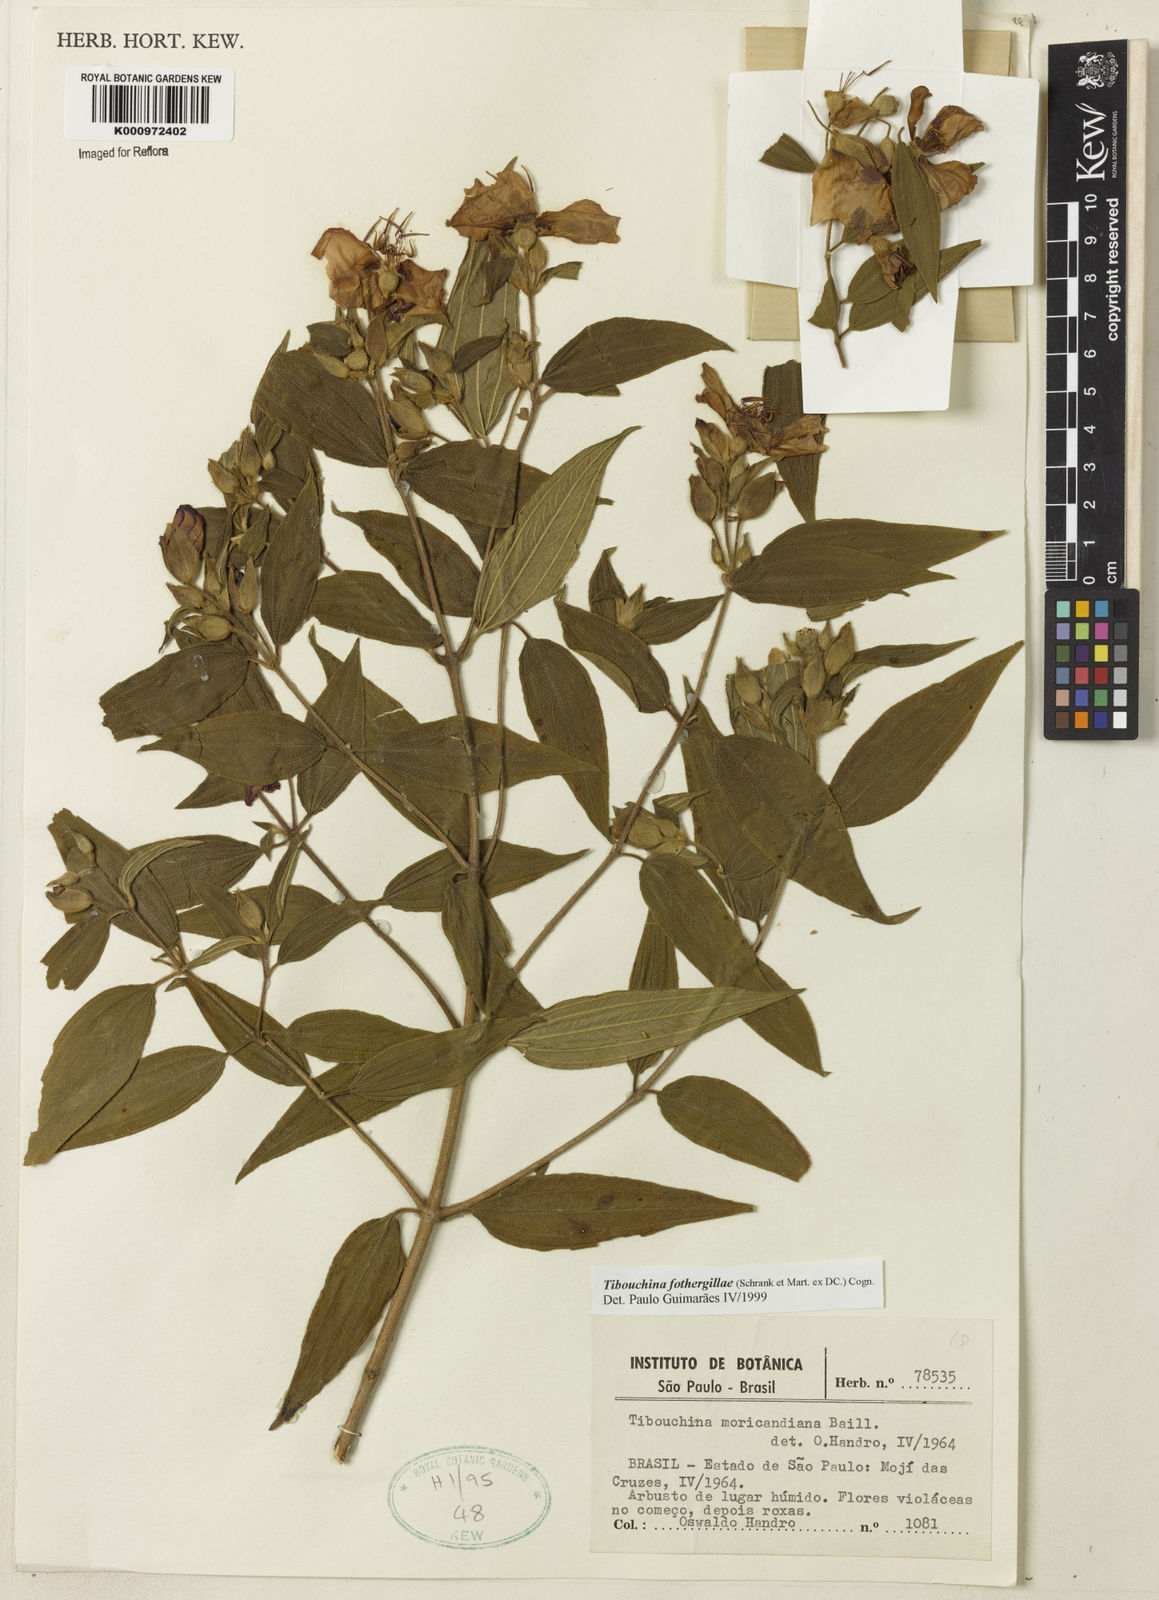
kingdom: Plantae
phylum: Tracheophyta
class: Magnoliopsida
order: Myrtales
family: Melastomataceae
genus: Pleroma
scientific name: Pleroma fothergillae
